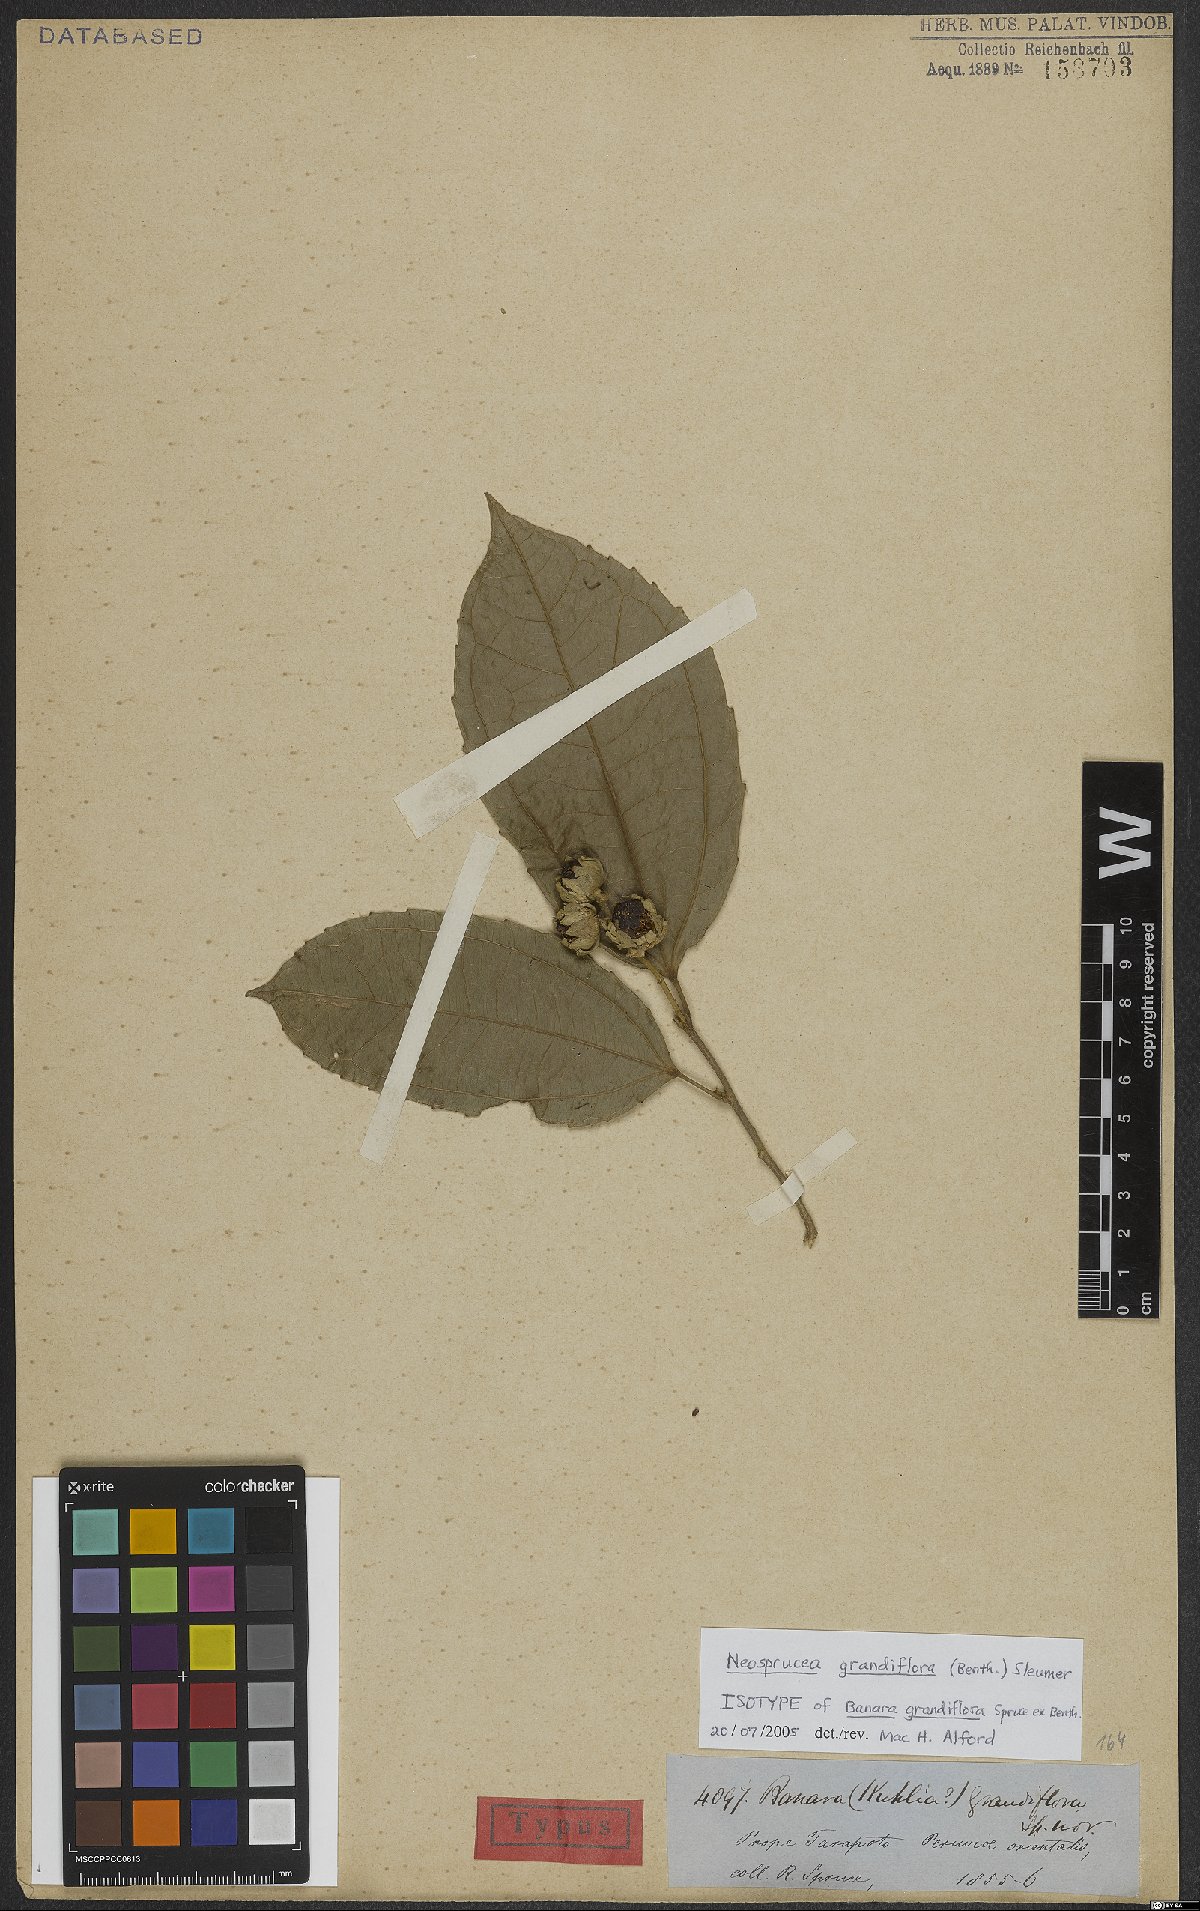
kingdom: Plantae
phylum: Tracheophyta
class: Magnoliopsida
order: Malpighiales
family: Salicaceae
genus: Neosprucea
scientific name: Neosprucea grandiflora
